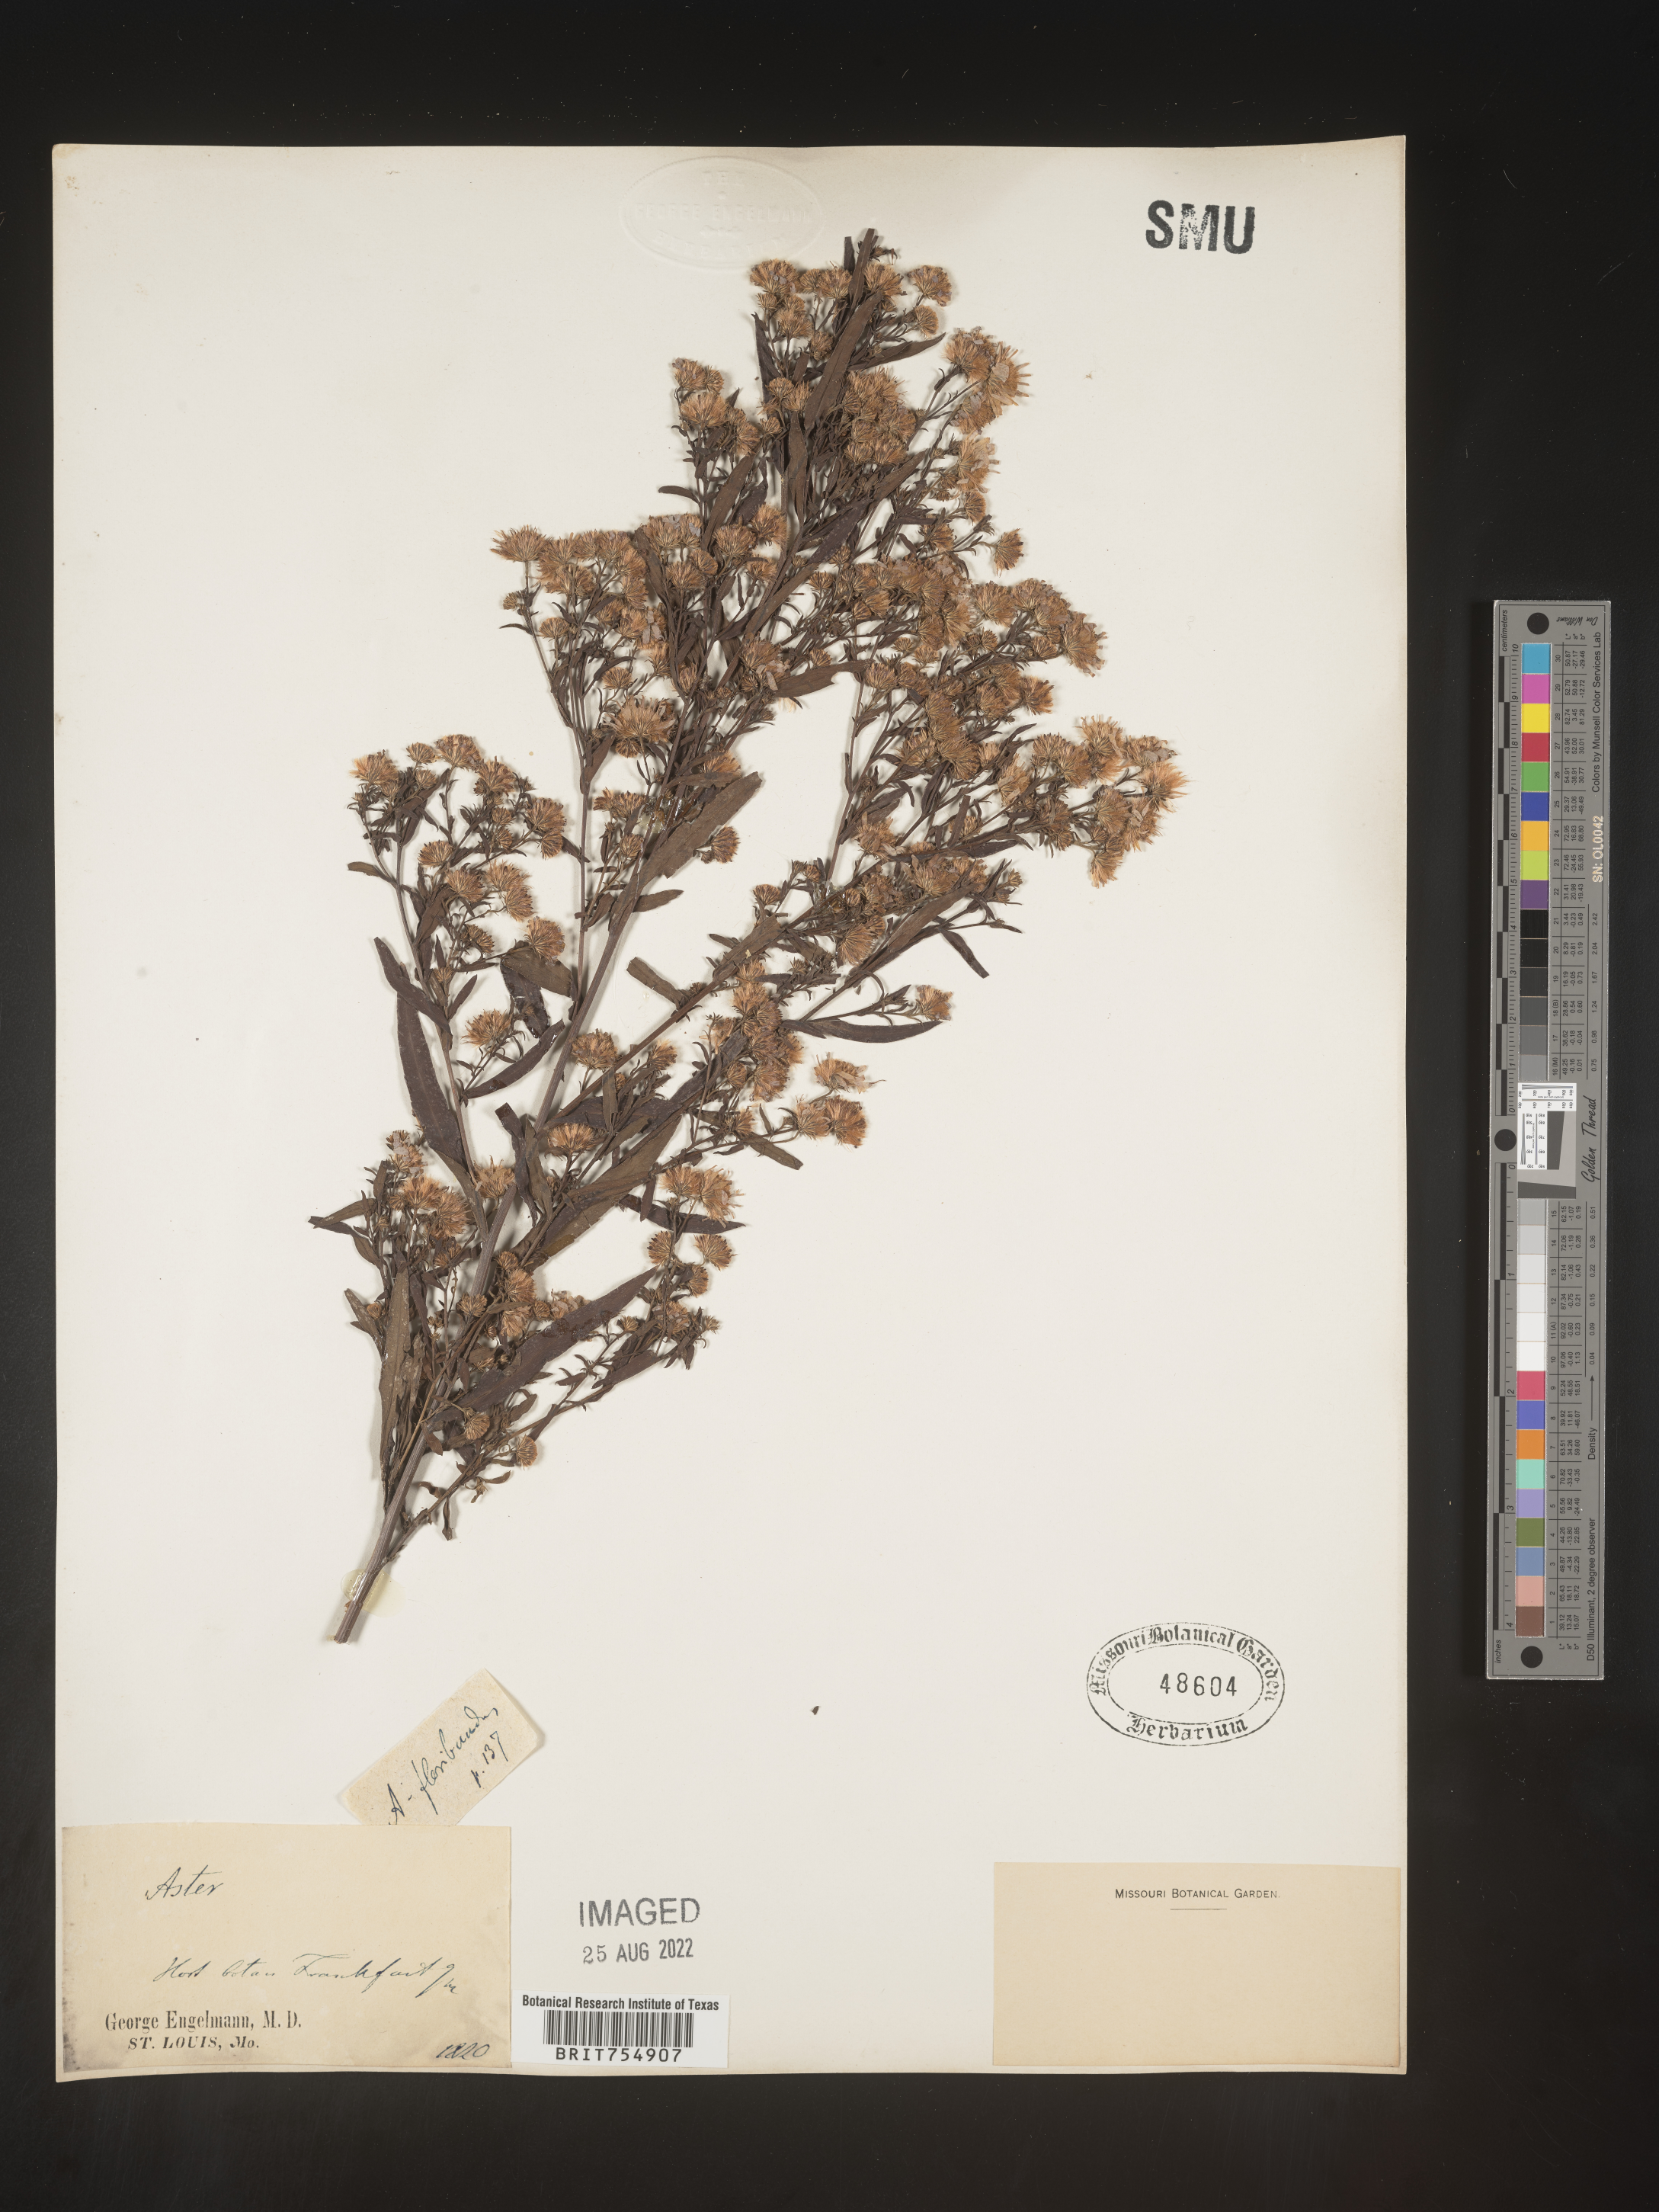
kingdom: Plantae
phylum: Tracheophyta
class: Magnoliopsida
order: Asterales
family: Asteraceae
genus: Symphyotrichum
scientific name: Symphyotrichum
